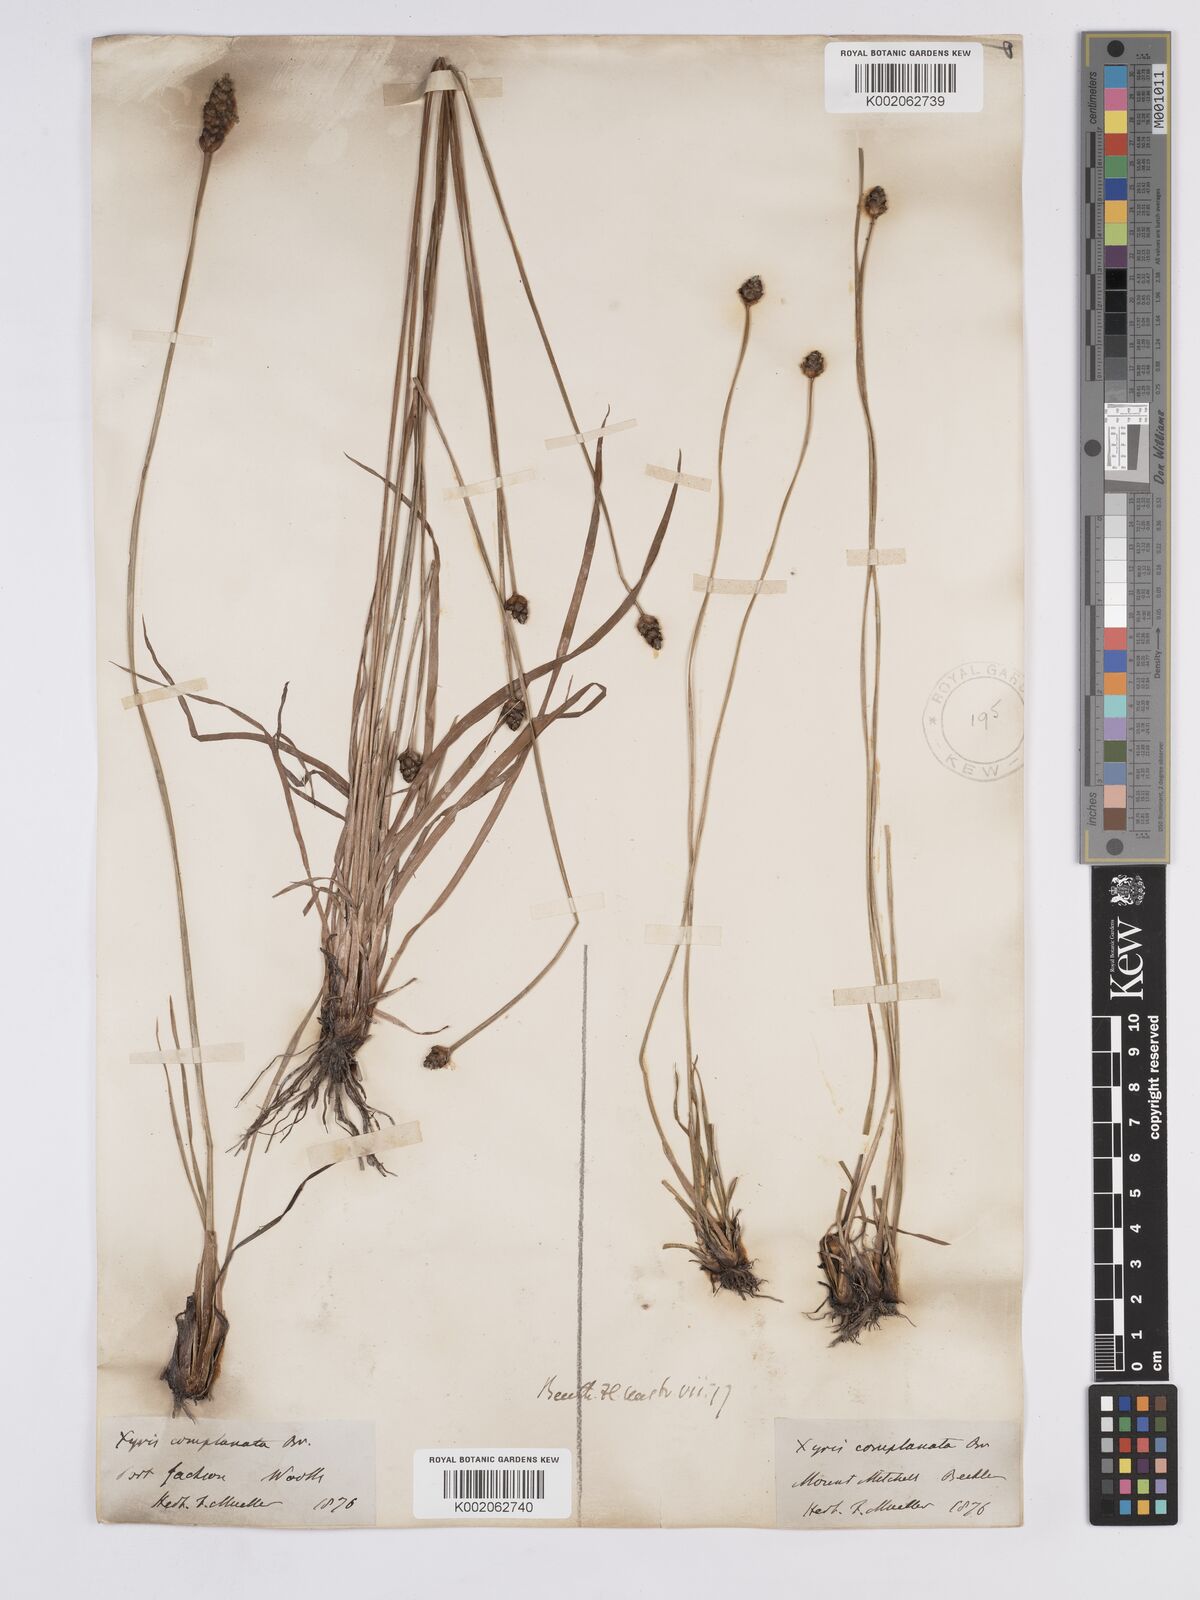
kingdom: Plantae
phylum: Tracheophyta
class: Liliopsida
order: Poales
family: Xyridaceae
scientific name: Xyridaceae
